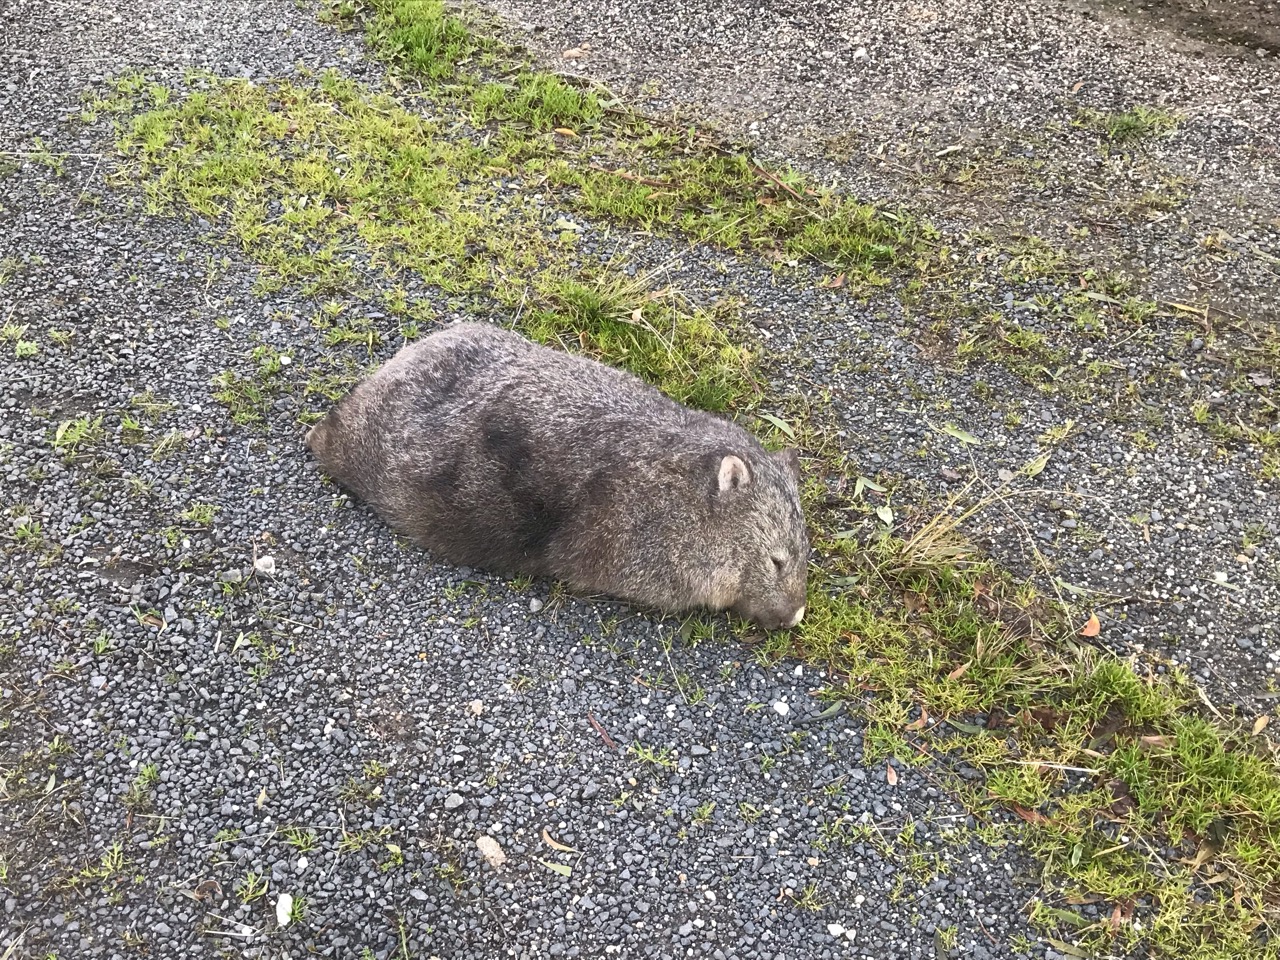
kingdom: Animalia
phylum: Chordata
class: Mammalia
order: Diprotodontia
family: Vombatidae
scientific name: Vombatidae
